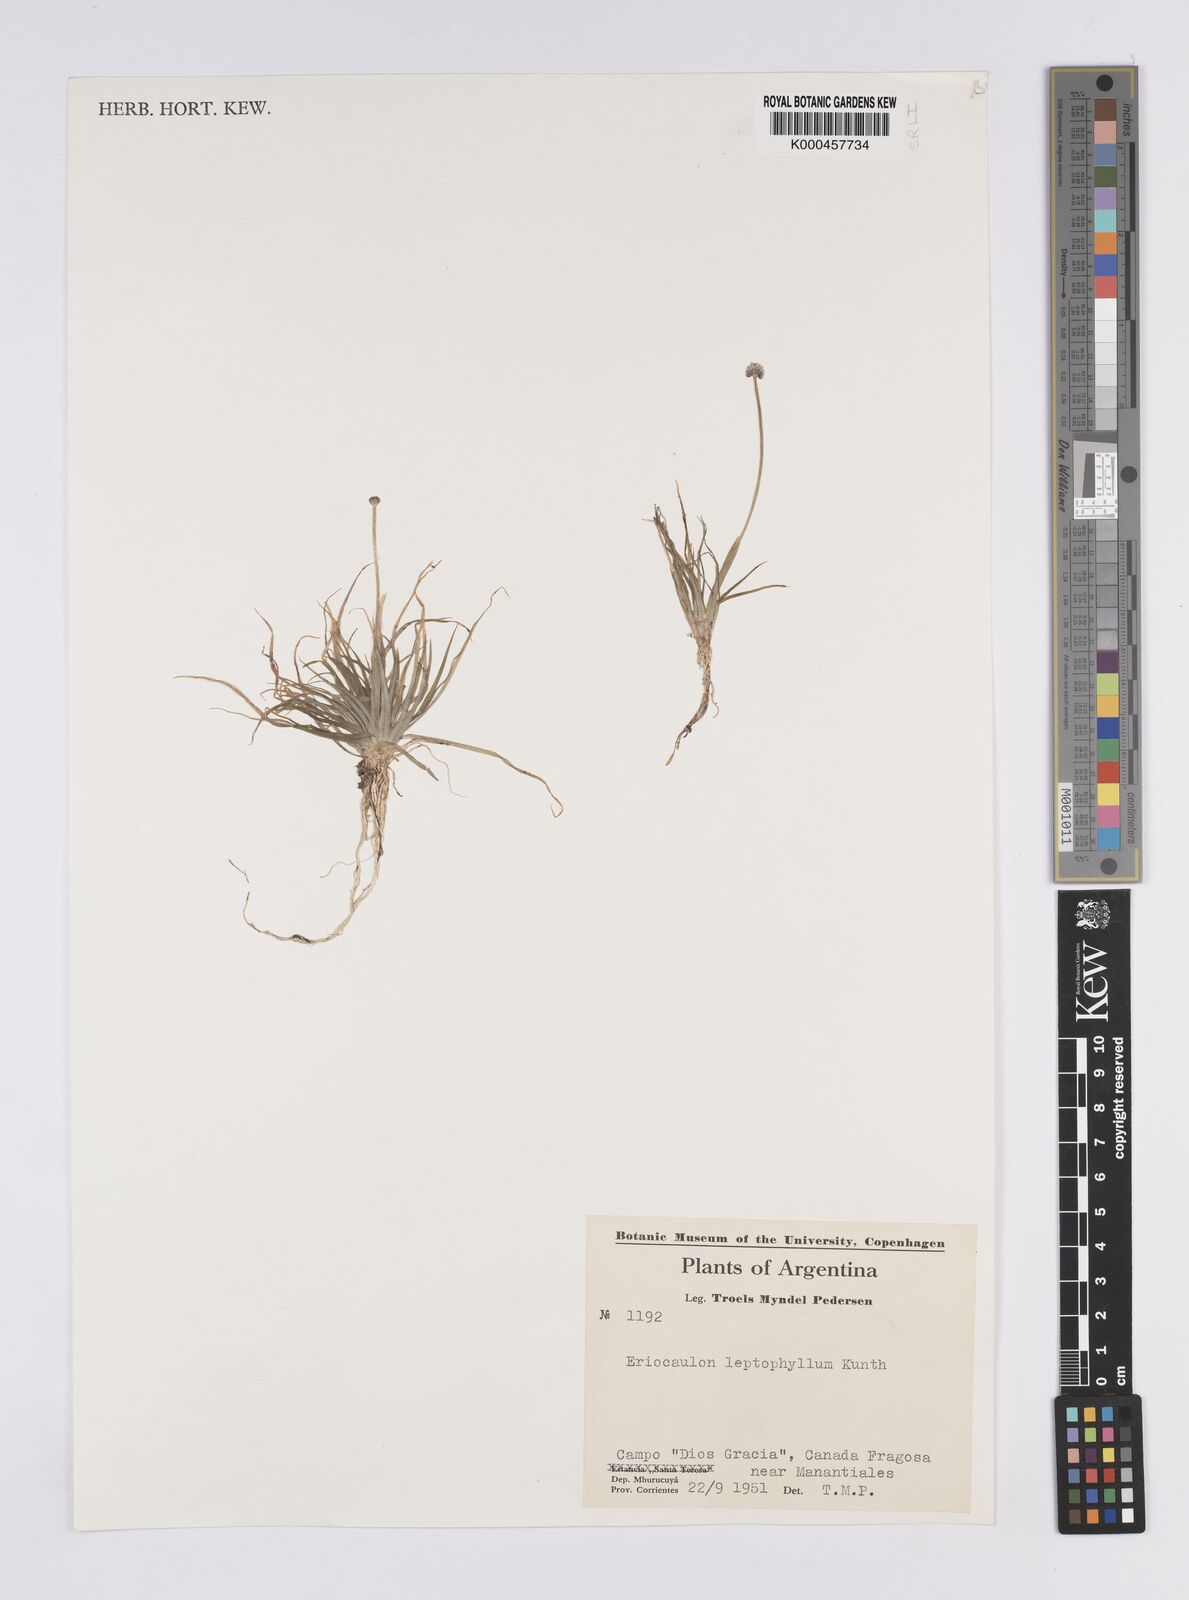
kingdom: Plantae
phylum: Tracheophyta
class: Liliopsida
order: Poales
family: Eriocaulaceae
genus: Eriocaulon
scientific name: Eriocaulon leptophyllum
